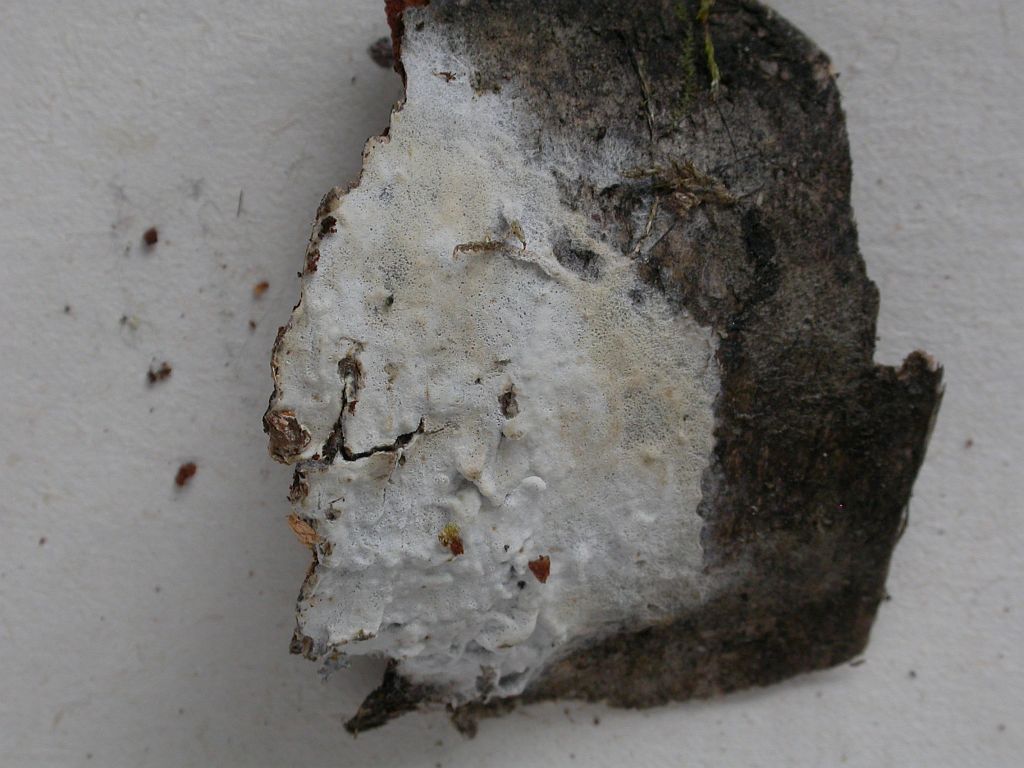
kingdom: Fungi
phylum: Basidiomycota
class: Agaricomycetes
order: Polyporales
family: Phanerochaetaceae
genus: Phanerochaete
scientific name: Phanerochaete velutina
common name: dunet randtråd
